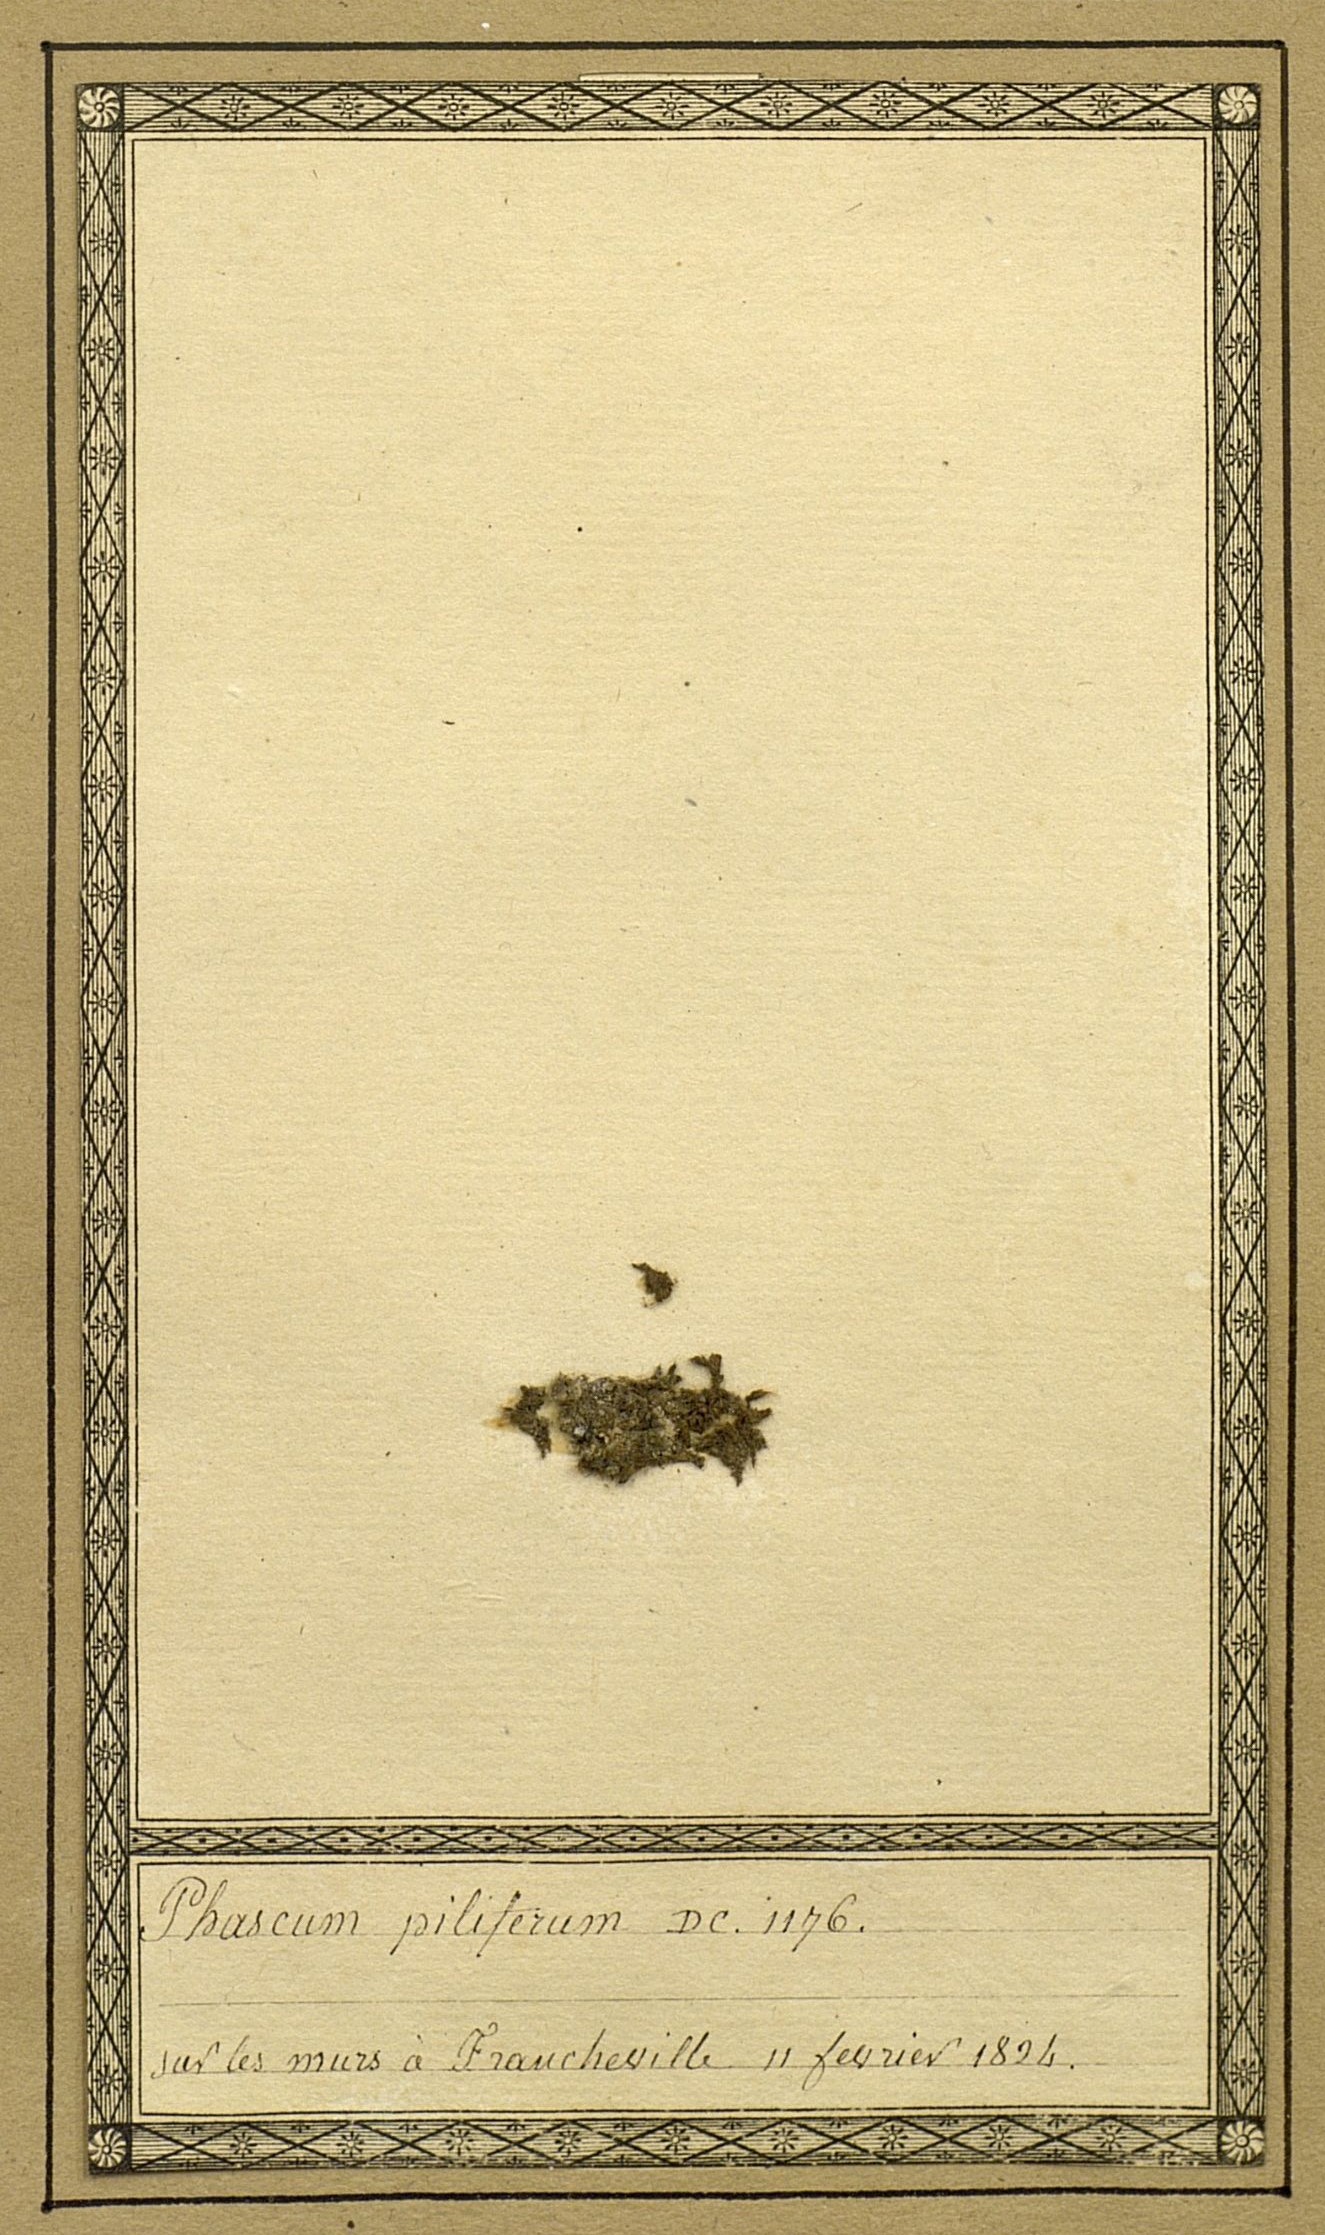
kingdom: Plantae
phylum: Bryophyta
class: Bryopsida
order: Pottiales
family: Pottiaceae
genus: Tortula
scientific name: Tortula acaulon
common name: Cuspidate earth moss
